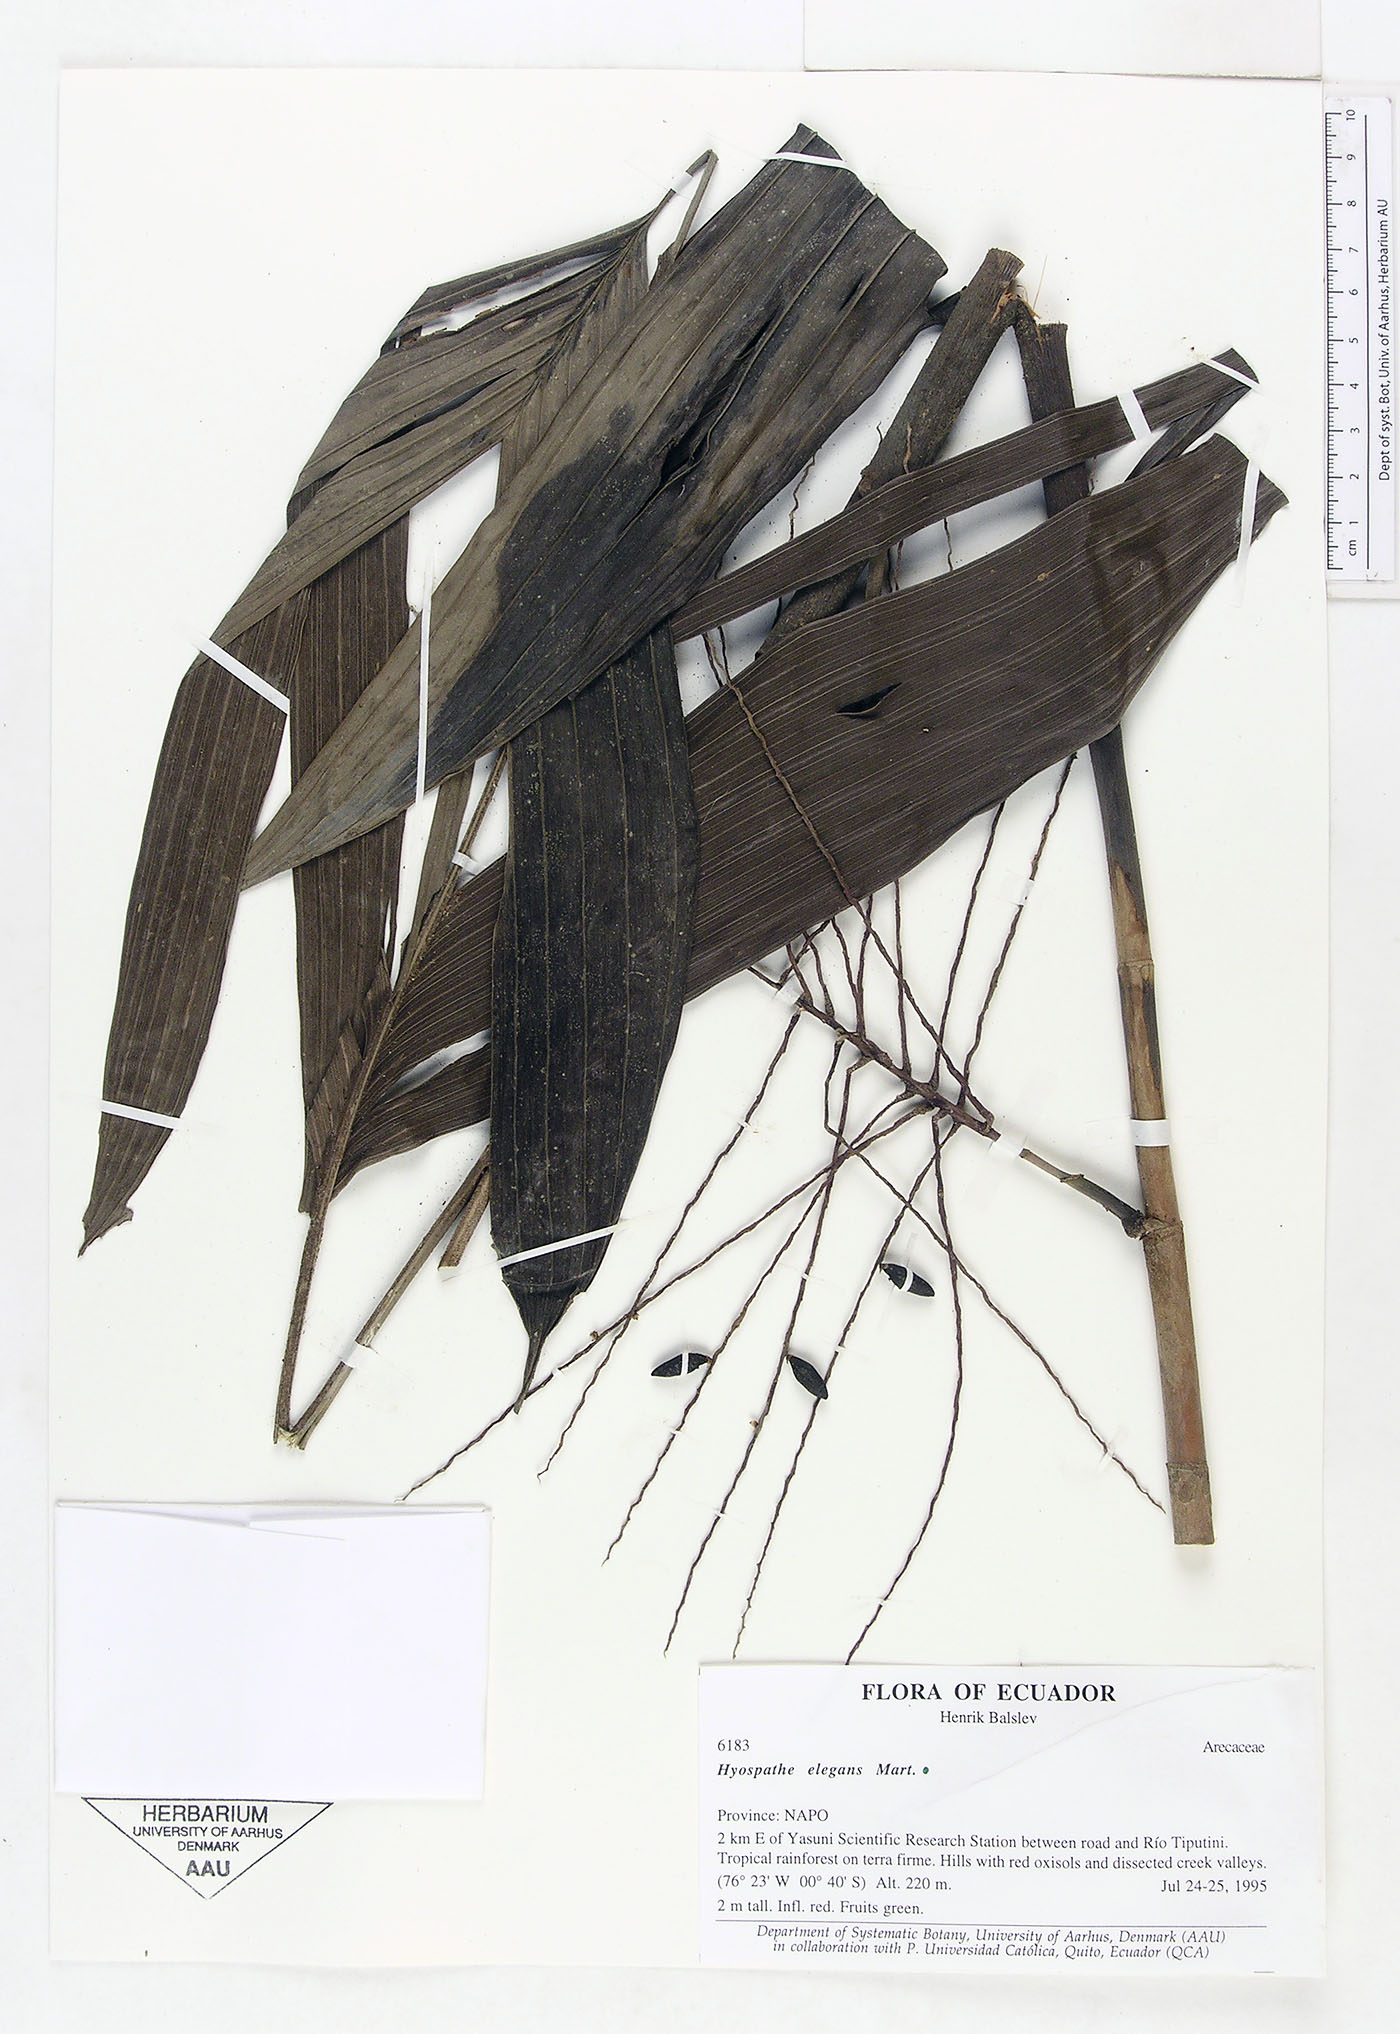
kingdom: Plantae
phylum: Tracheophyta
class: Liliopsida
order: Arecales
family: Arecaceae
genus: Hyospathe
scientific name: Hyospathe elegans
